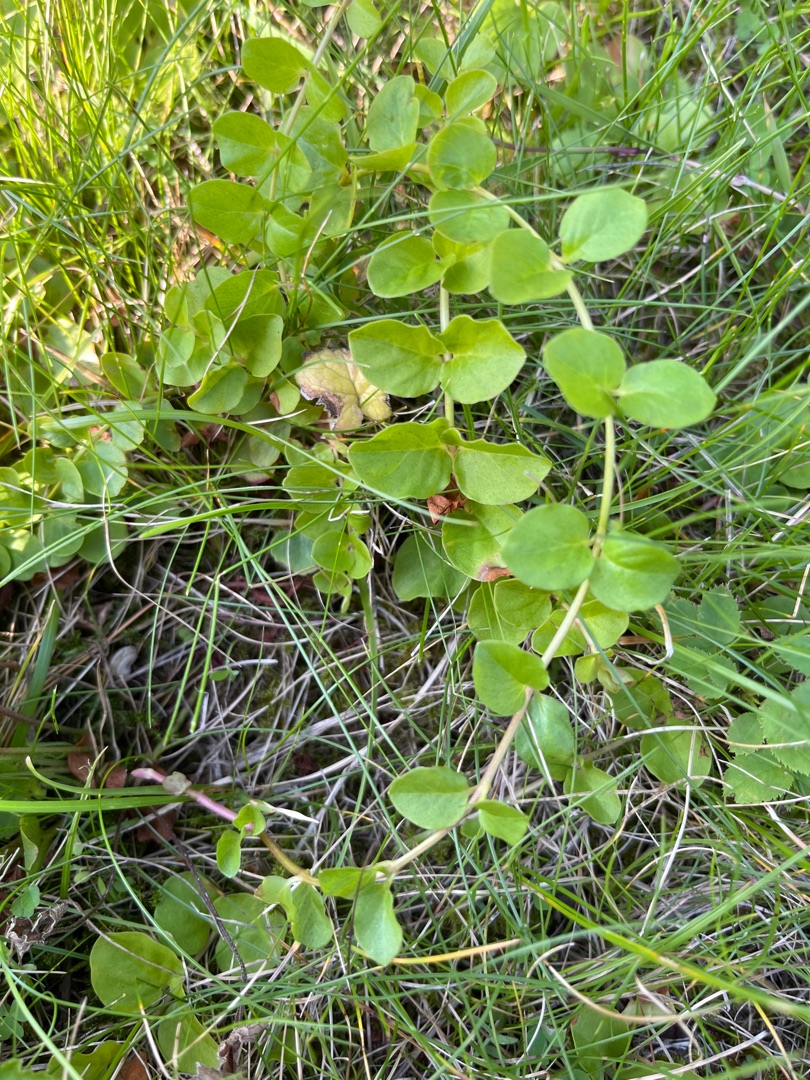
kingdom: Plantae
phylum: Tracheophyta
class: Magnoliopsida
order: Ericales
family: Primulaceae
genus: Lysimachia
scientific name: Lysimachia nummularia
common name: Pengebladet fredløs
